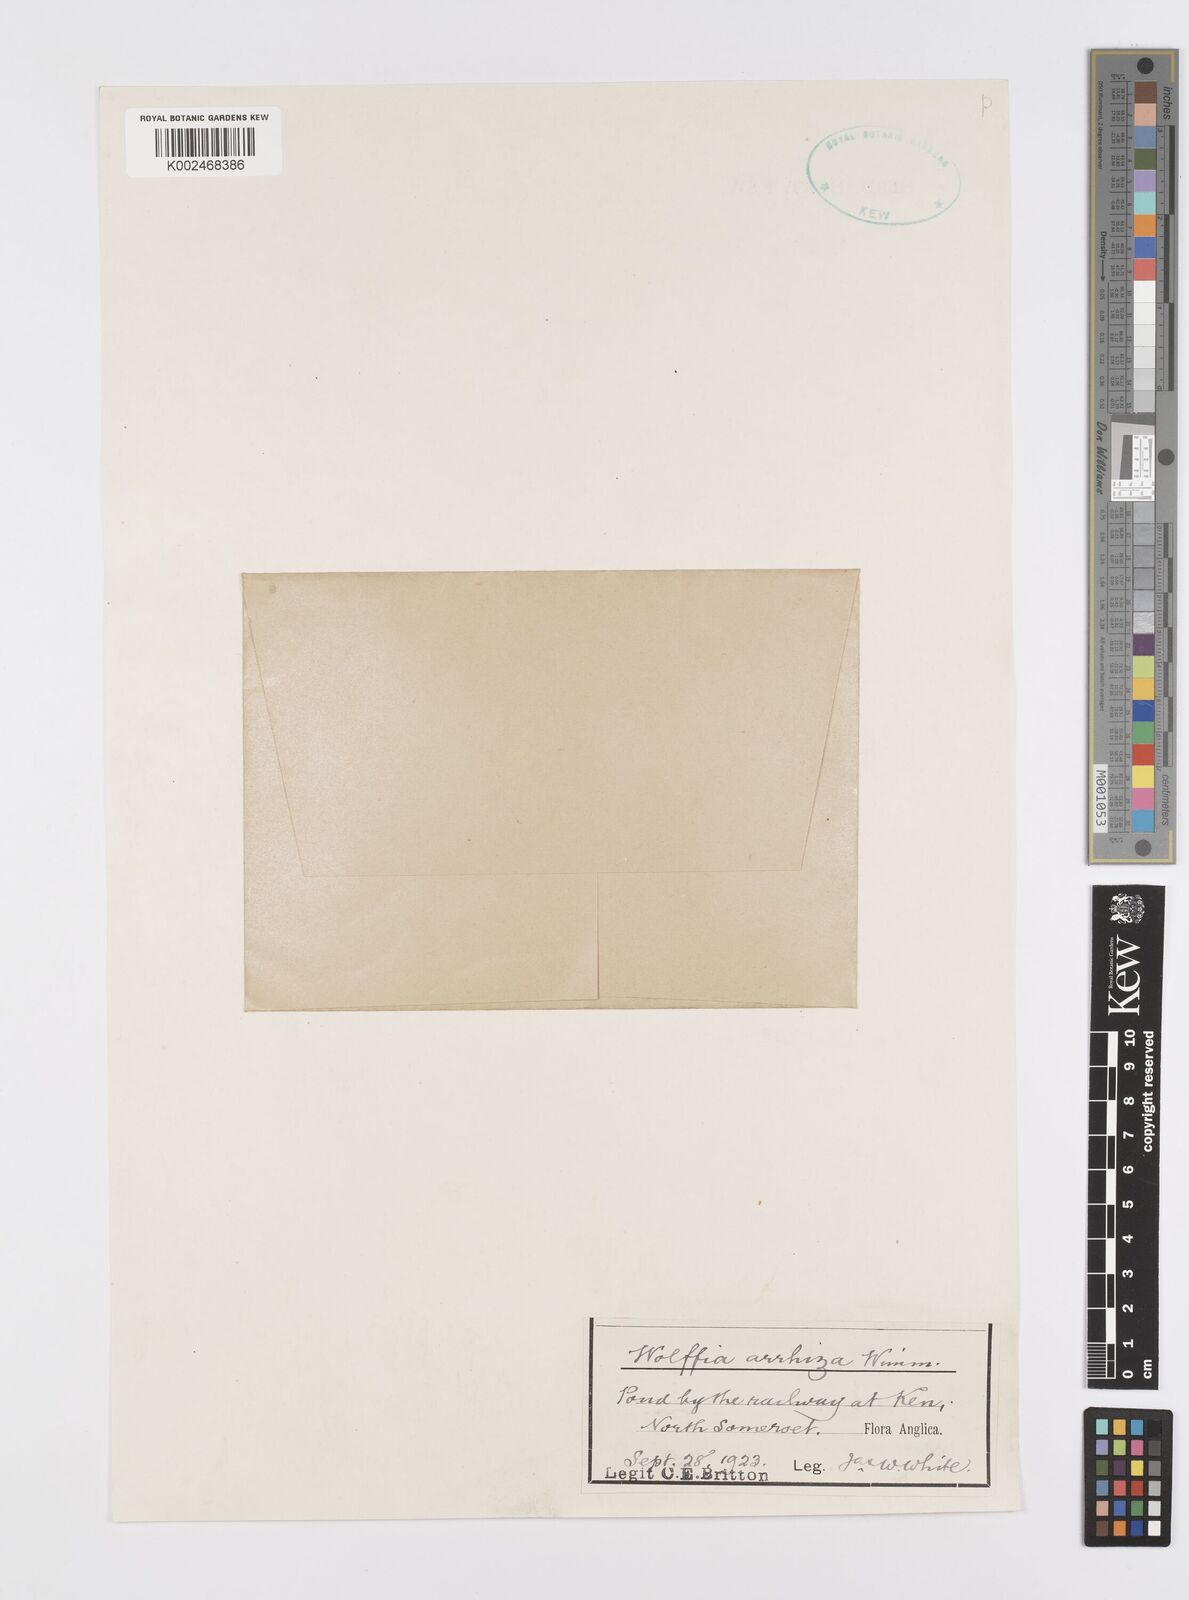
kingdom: Plantae
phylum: Tracheophyta
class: Liliopsida
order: Alismatales
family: Araceae
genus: Wolffia
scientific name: Wolffia arrhiza
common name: Rootless duckweed
